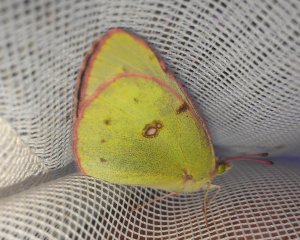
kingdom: Animalia
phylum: Arthropoda
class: Insecta
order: Lepidoptera
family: Pieridae
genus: Colias
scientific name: Colias philodice
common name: Clouded Sulphur
